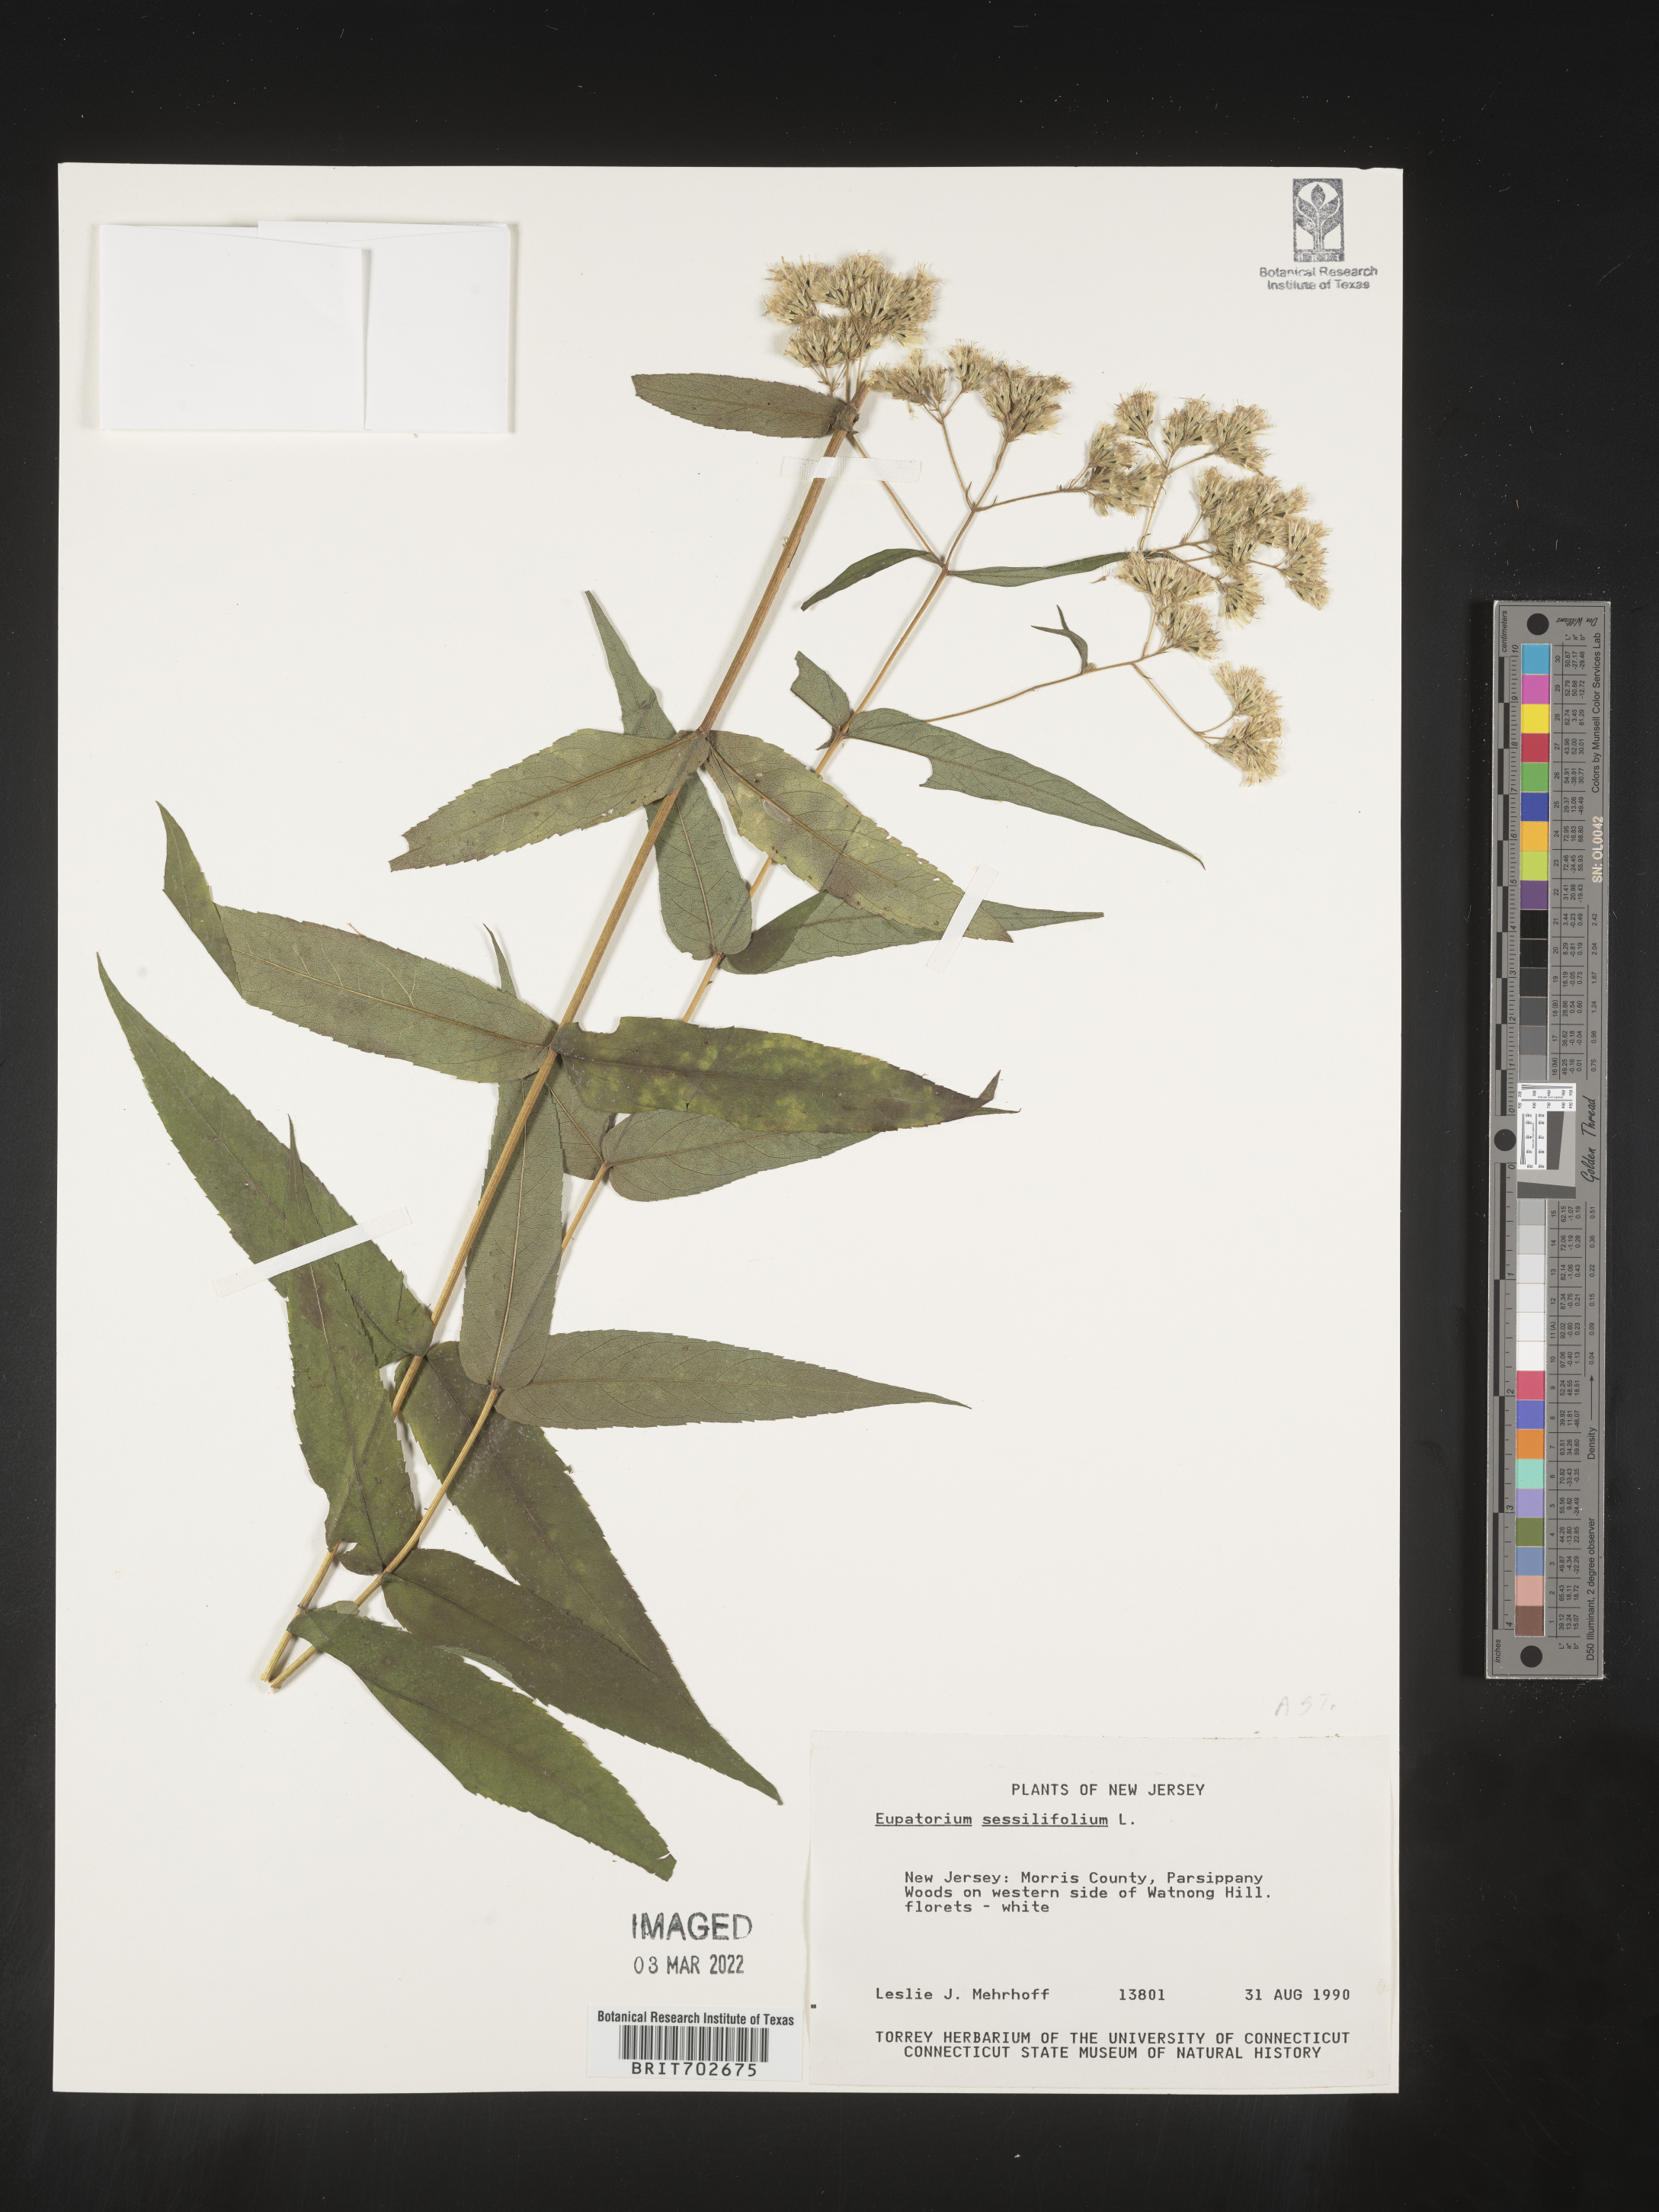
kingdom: Plantae
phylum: Tracheophyta
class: Magnoliopsida
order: Asterales
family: Asteraceae
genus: Eupatorium
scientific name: Eupatorium sessilifolium
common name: Upland boneset
